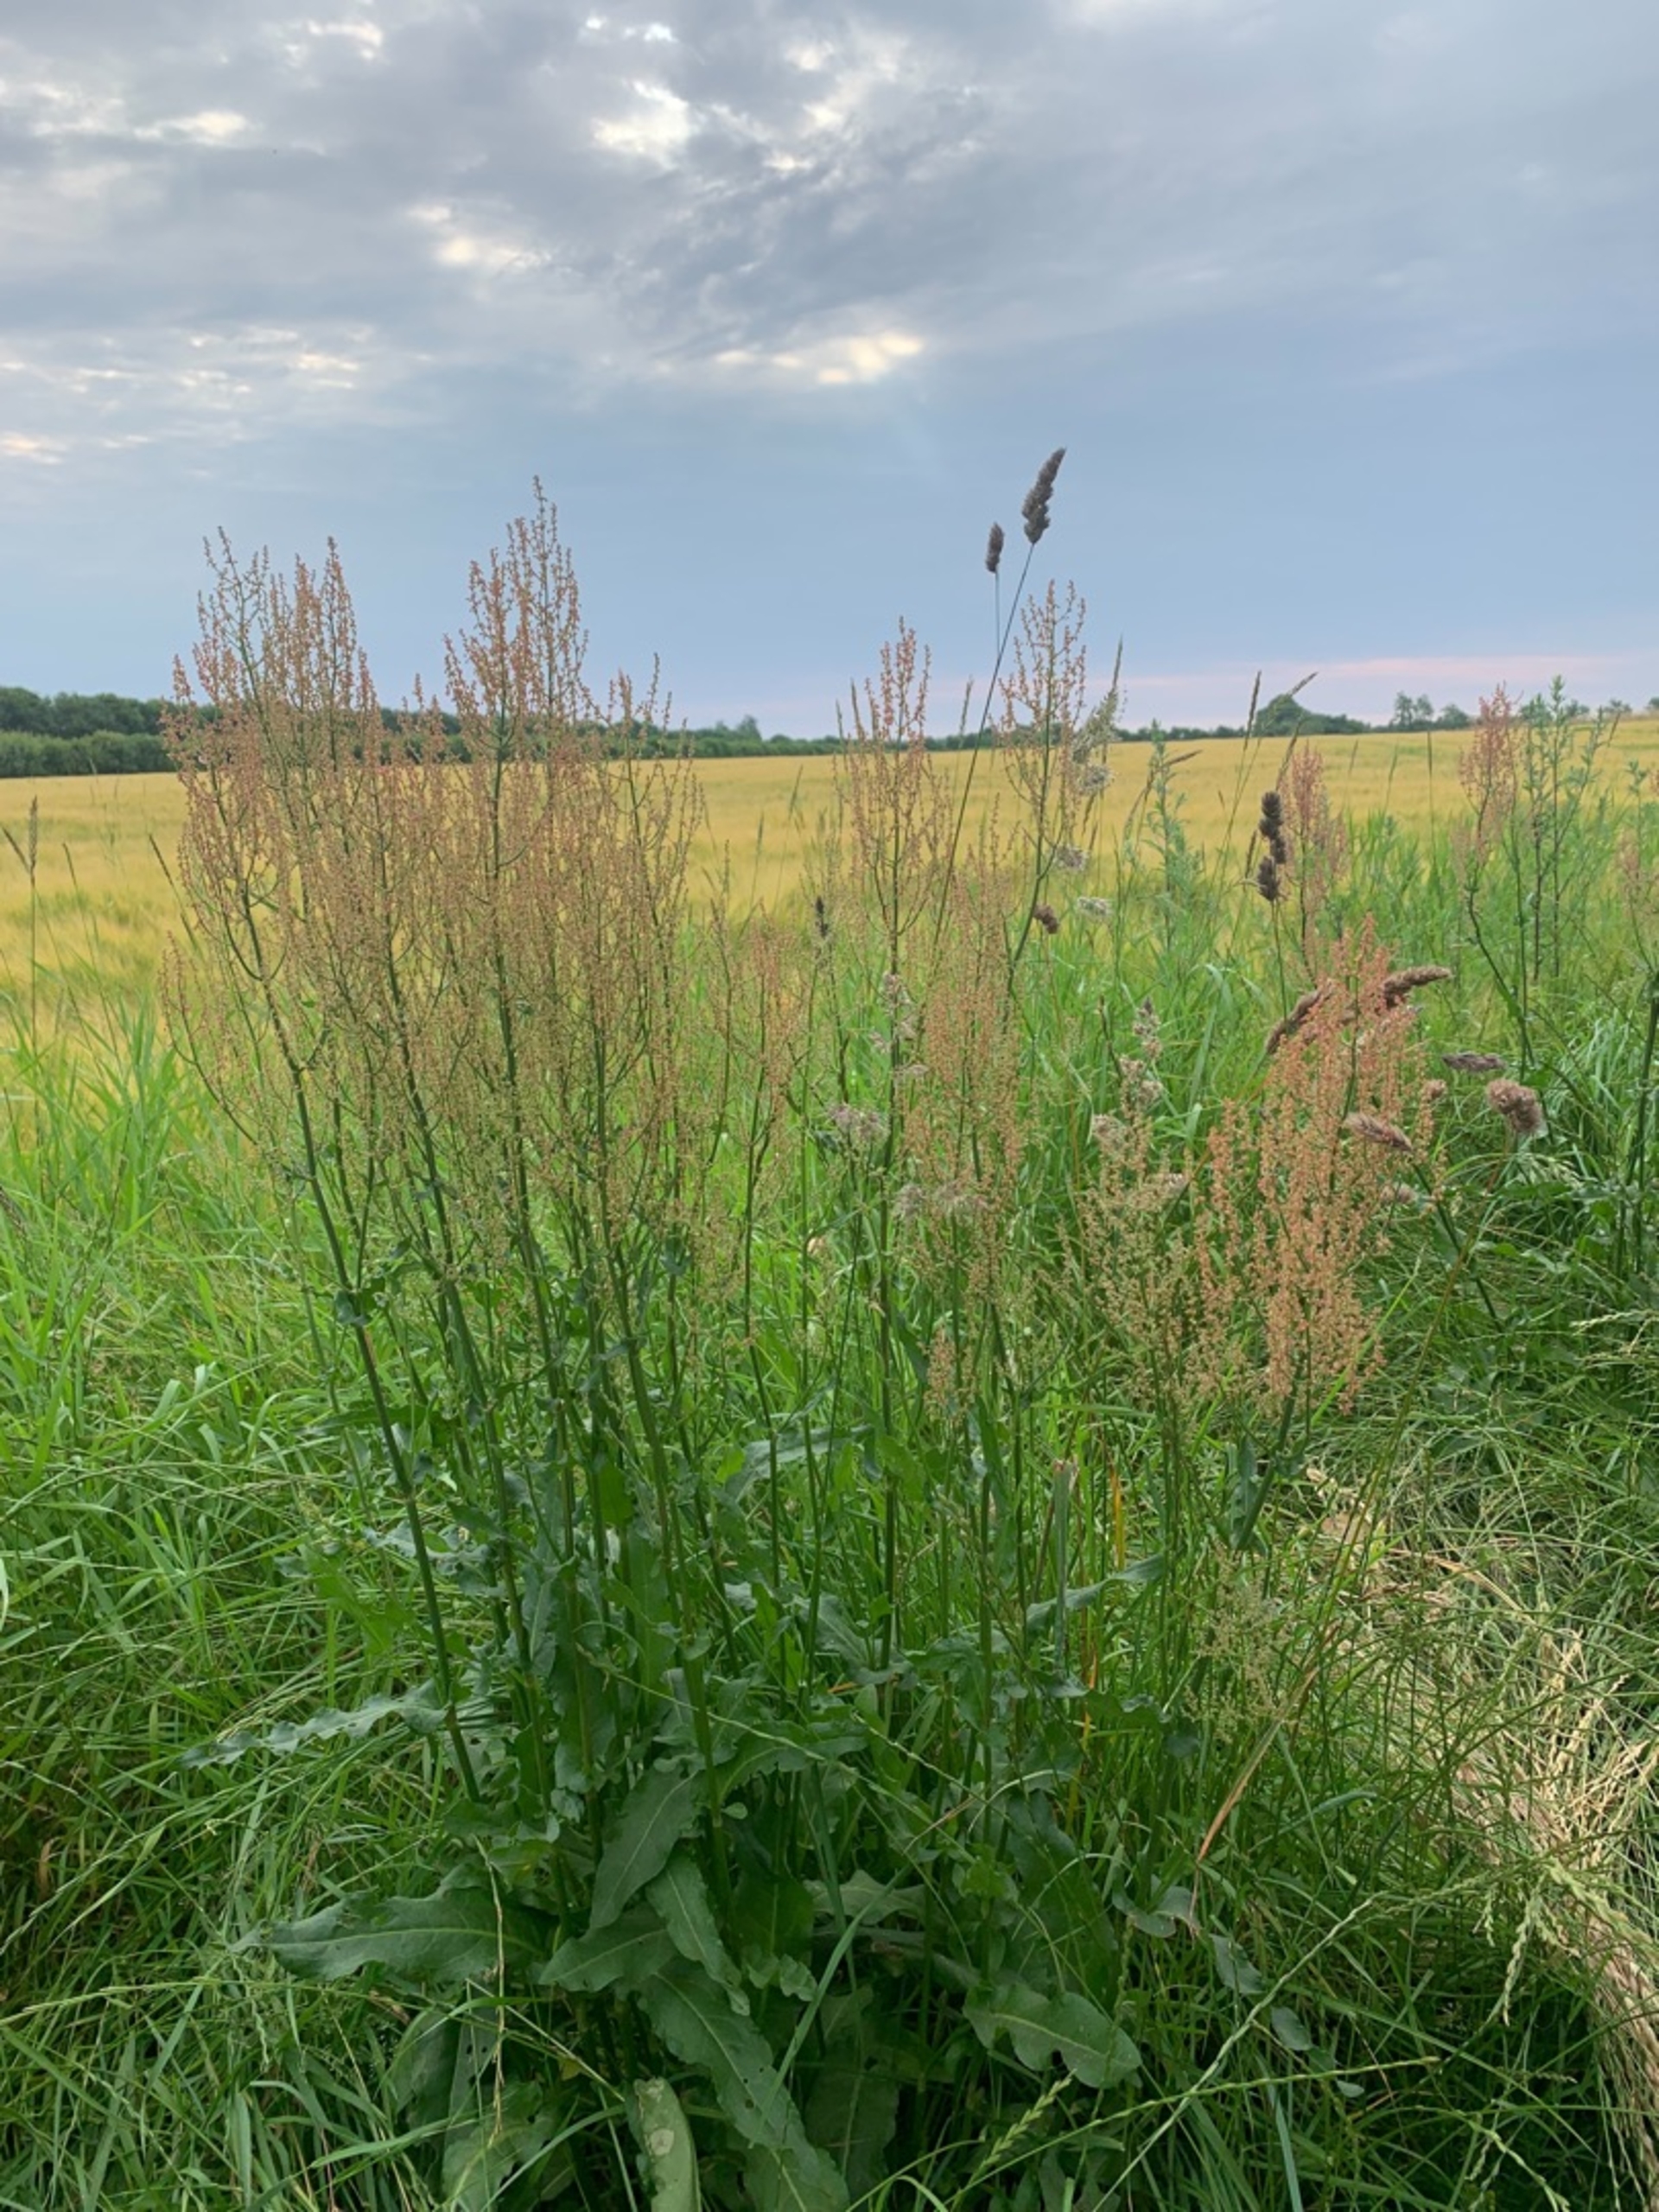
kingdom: Plantae
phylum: Tracheophyta
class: Magnoliopsida
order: Caryophyllales
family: Polygonaceae
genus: Rumex
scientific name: Rumex thyrsiflorus
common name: Dusk-syre
